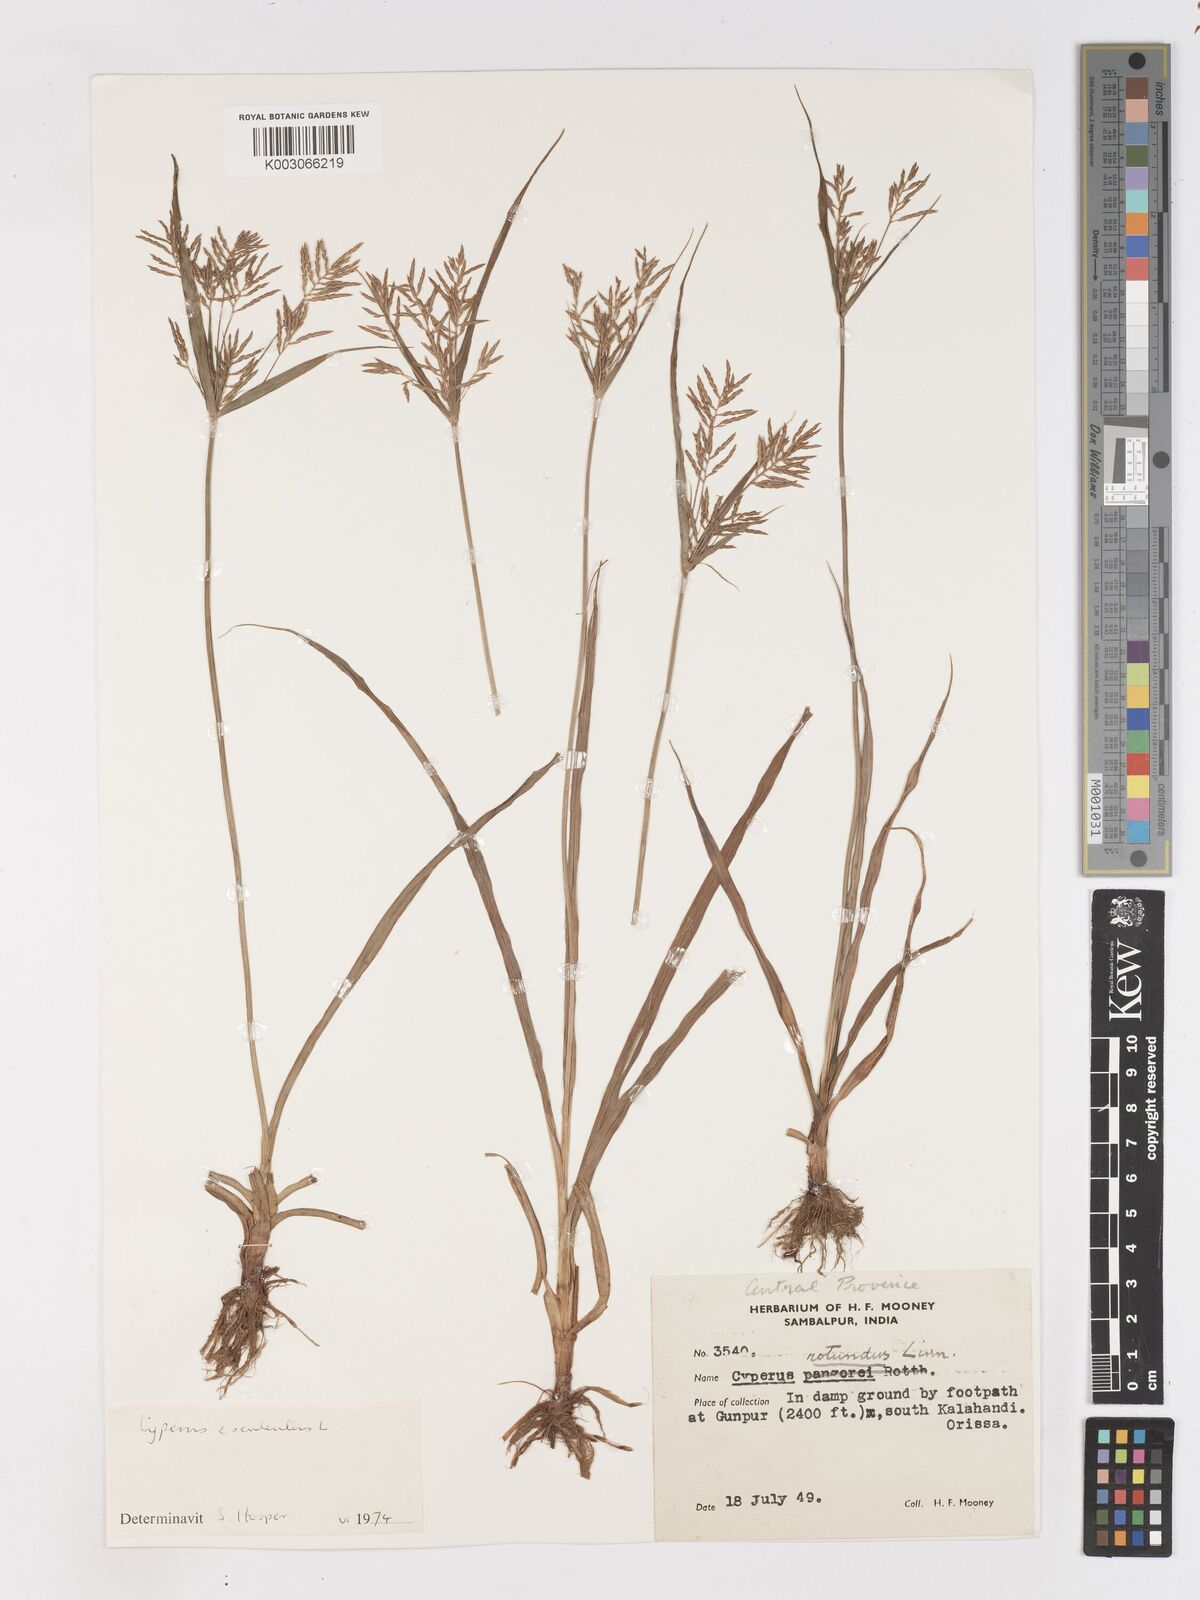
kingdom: Plantae
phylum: Tracheophyta
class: Liliopsida
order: Poales
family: Cyperaceae
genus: Cyperus
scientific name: Cyperus esculentus
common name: Yellow nutsedge
